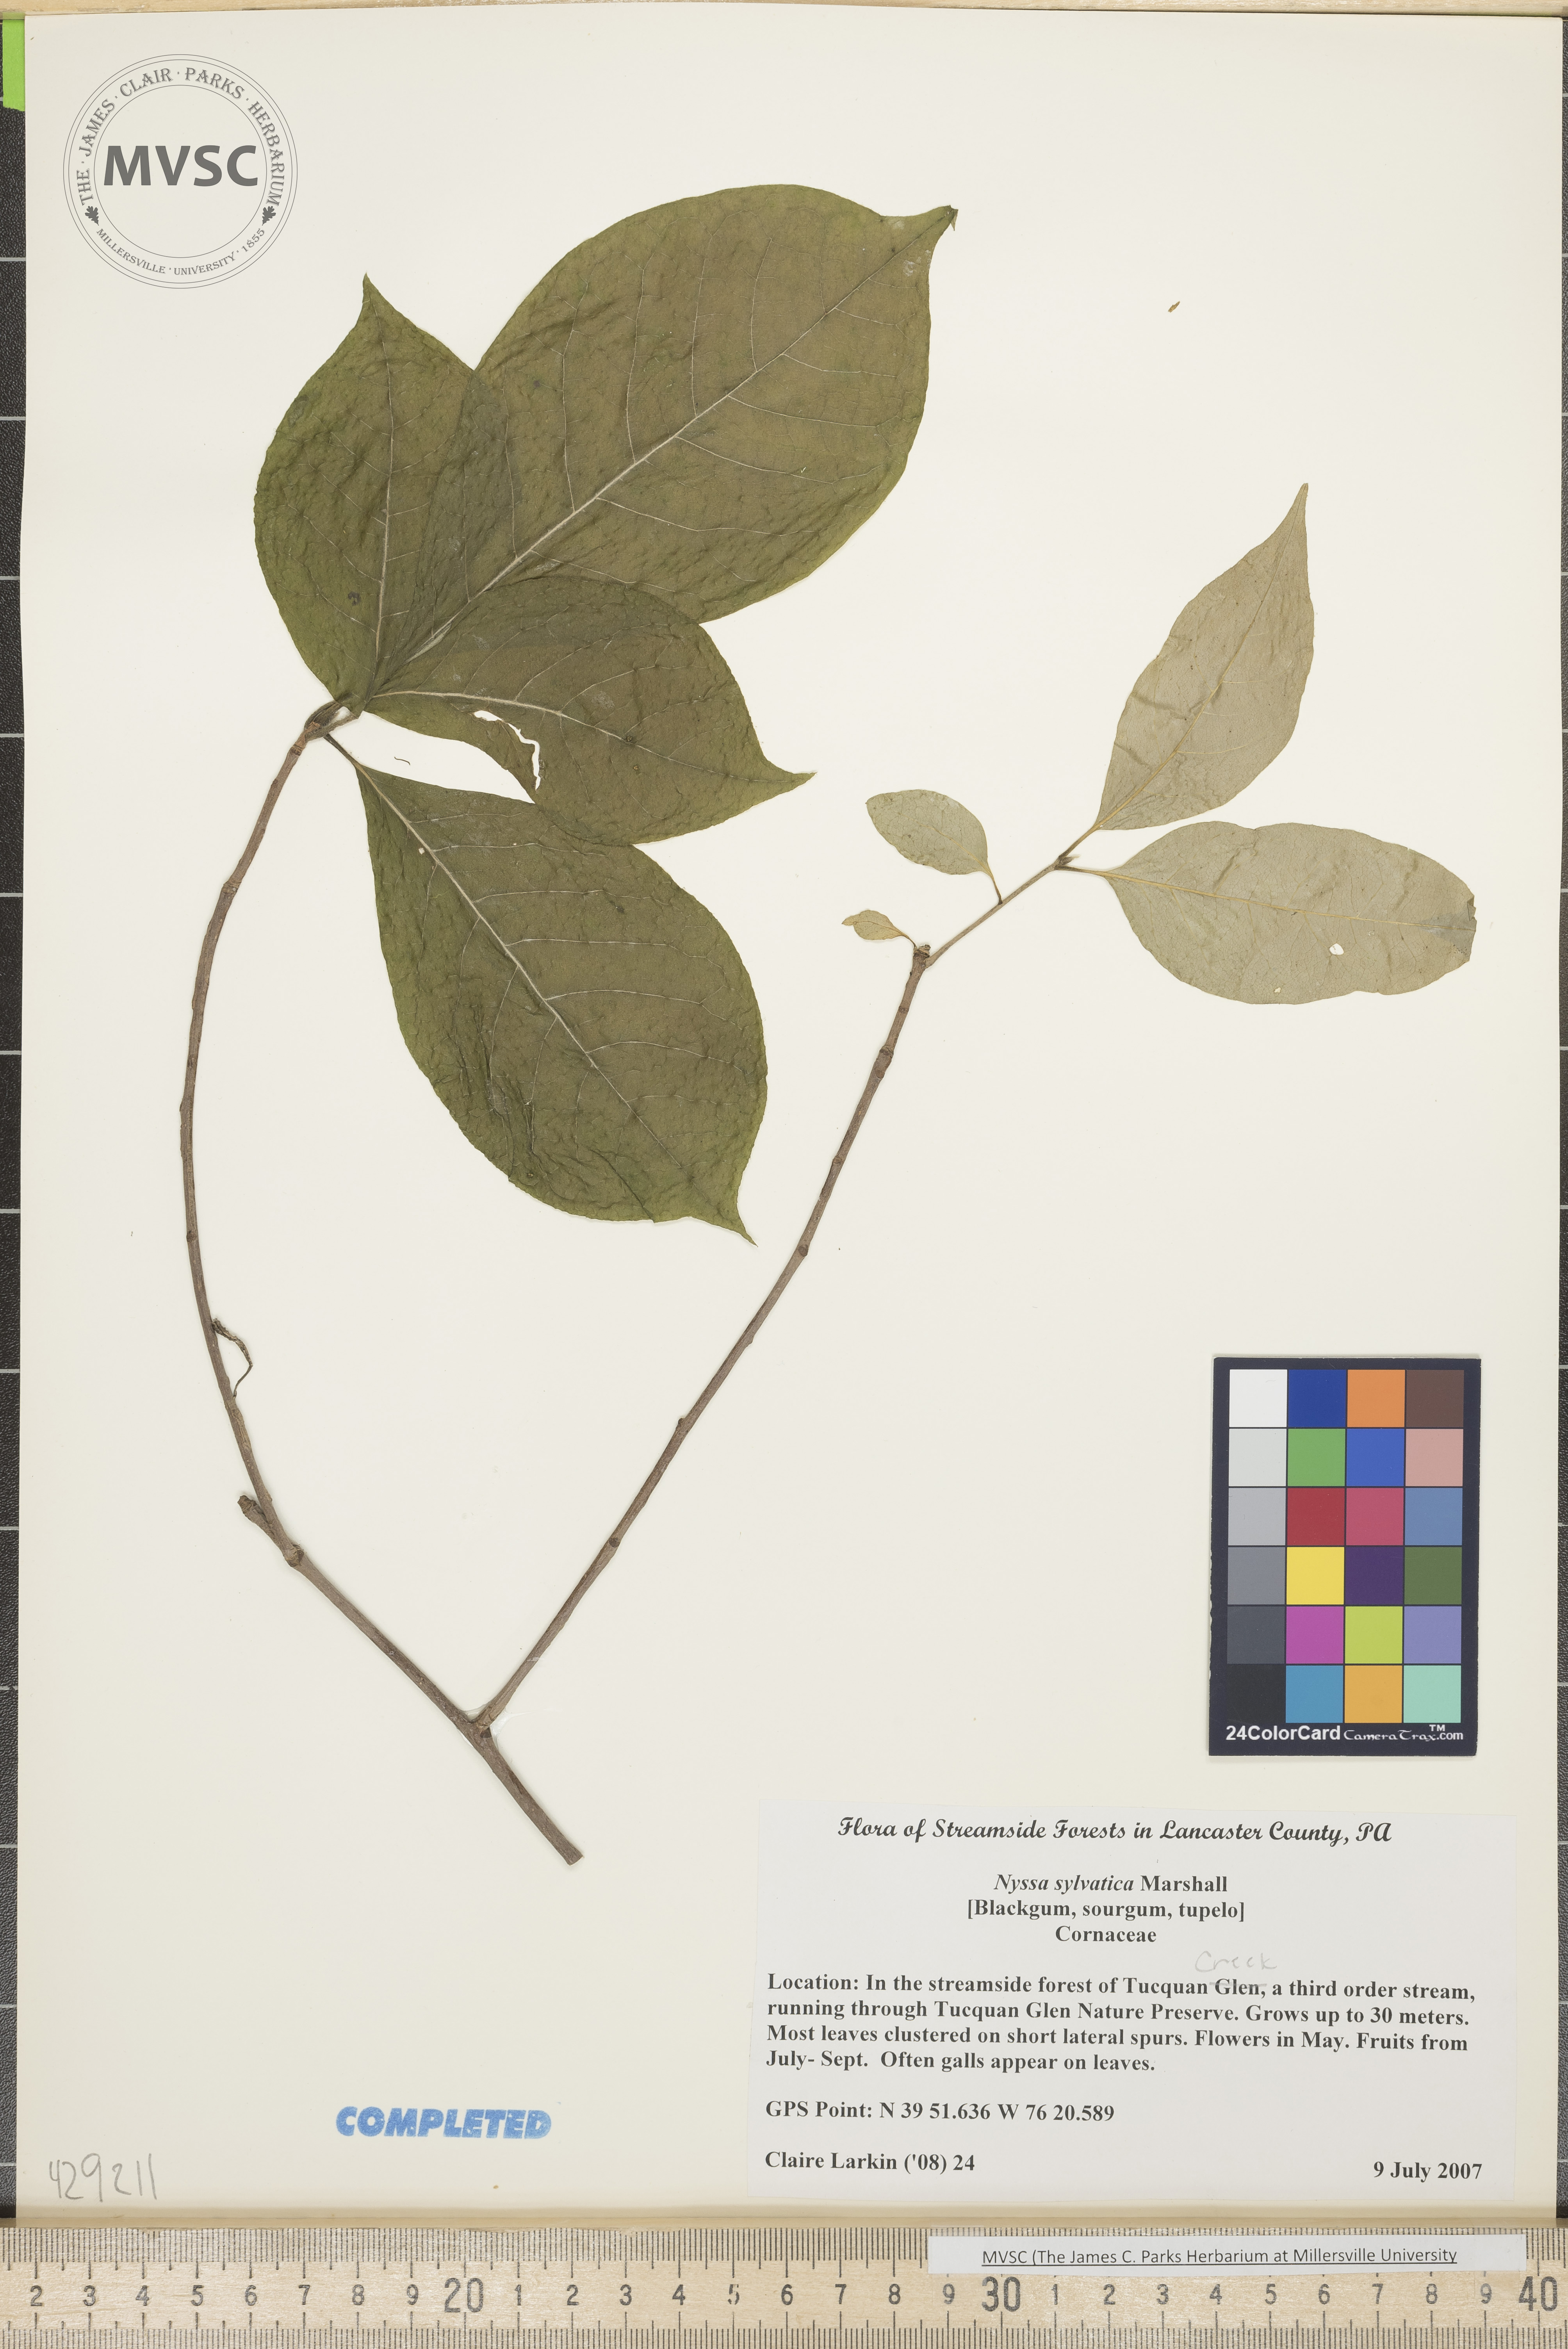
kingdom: Plantae
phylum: Tracheophyta
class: Magnoliopsida
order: Cornales
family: Nyssaceae
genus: Nyssa
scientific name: Nyssa sylvatica
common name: Black gum
